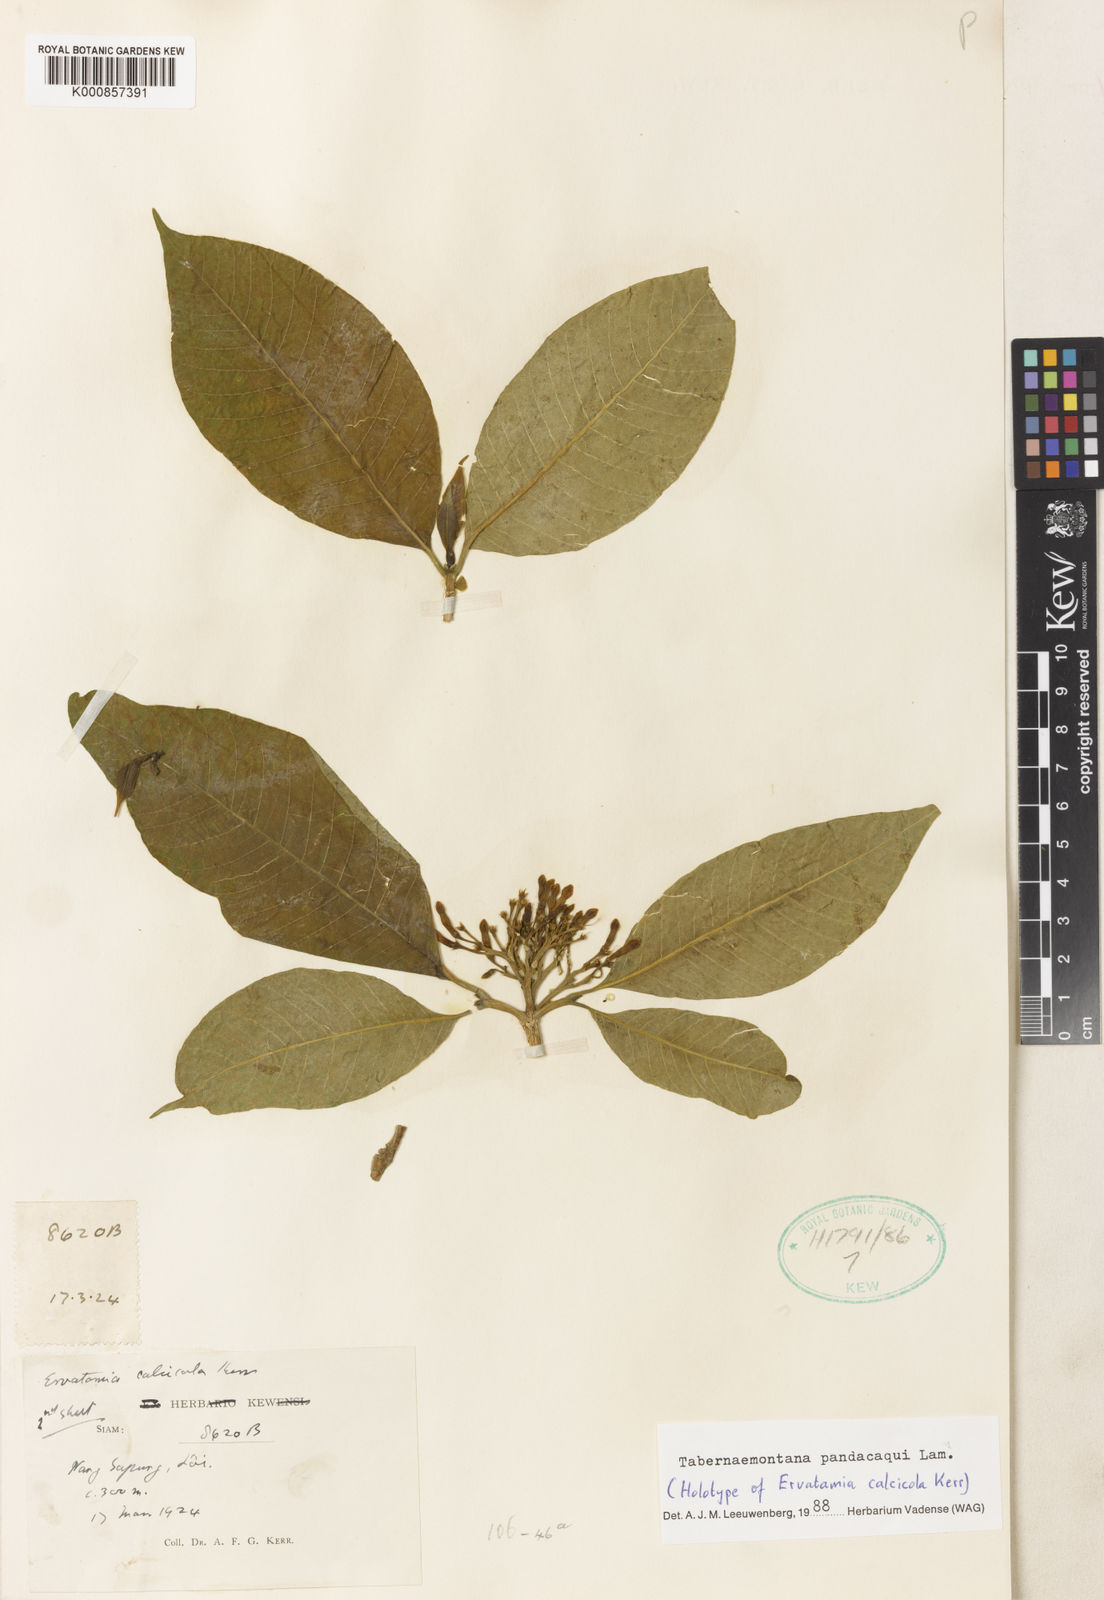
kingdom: Plantae
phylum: Tracheophyta
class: Magnoliopsida
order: Gentianales
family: Apocynaceae
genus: Tabernaemontana
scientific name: Tabernaemontana
